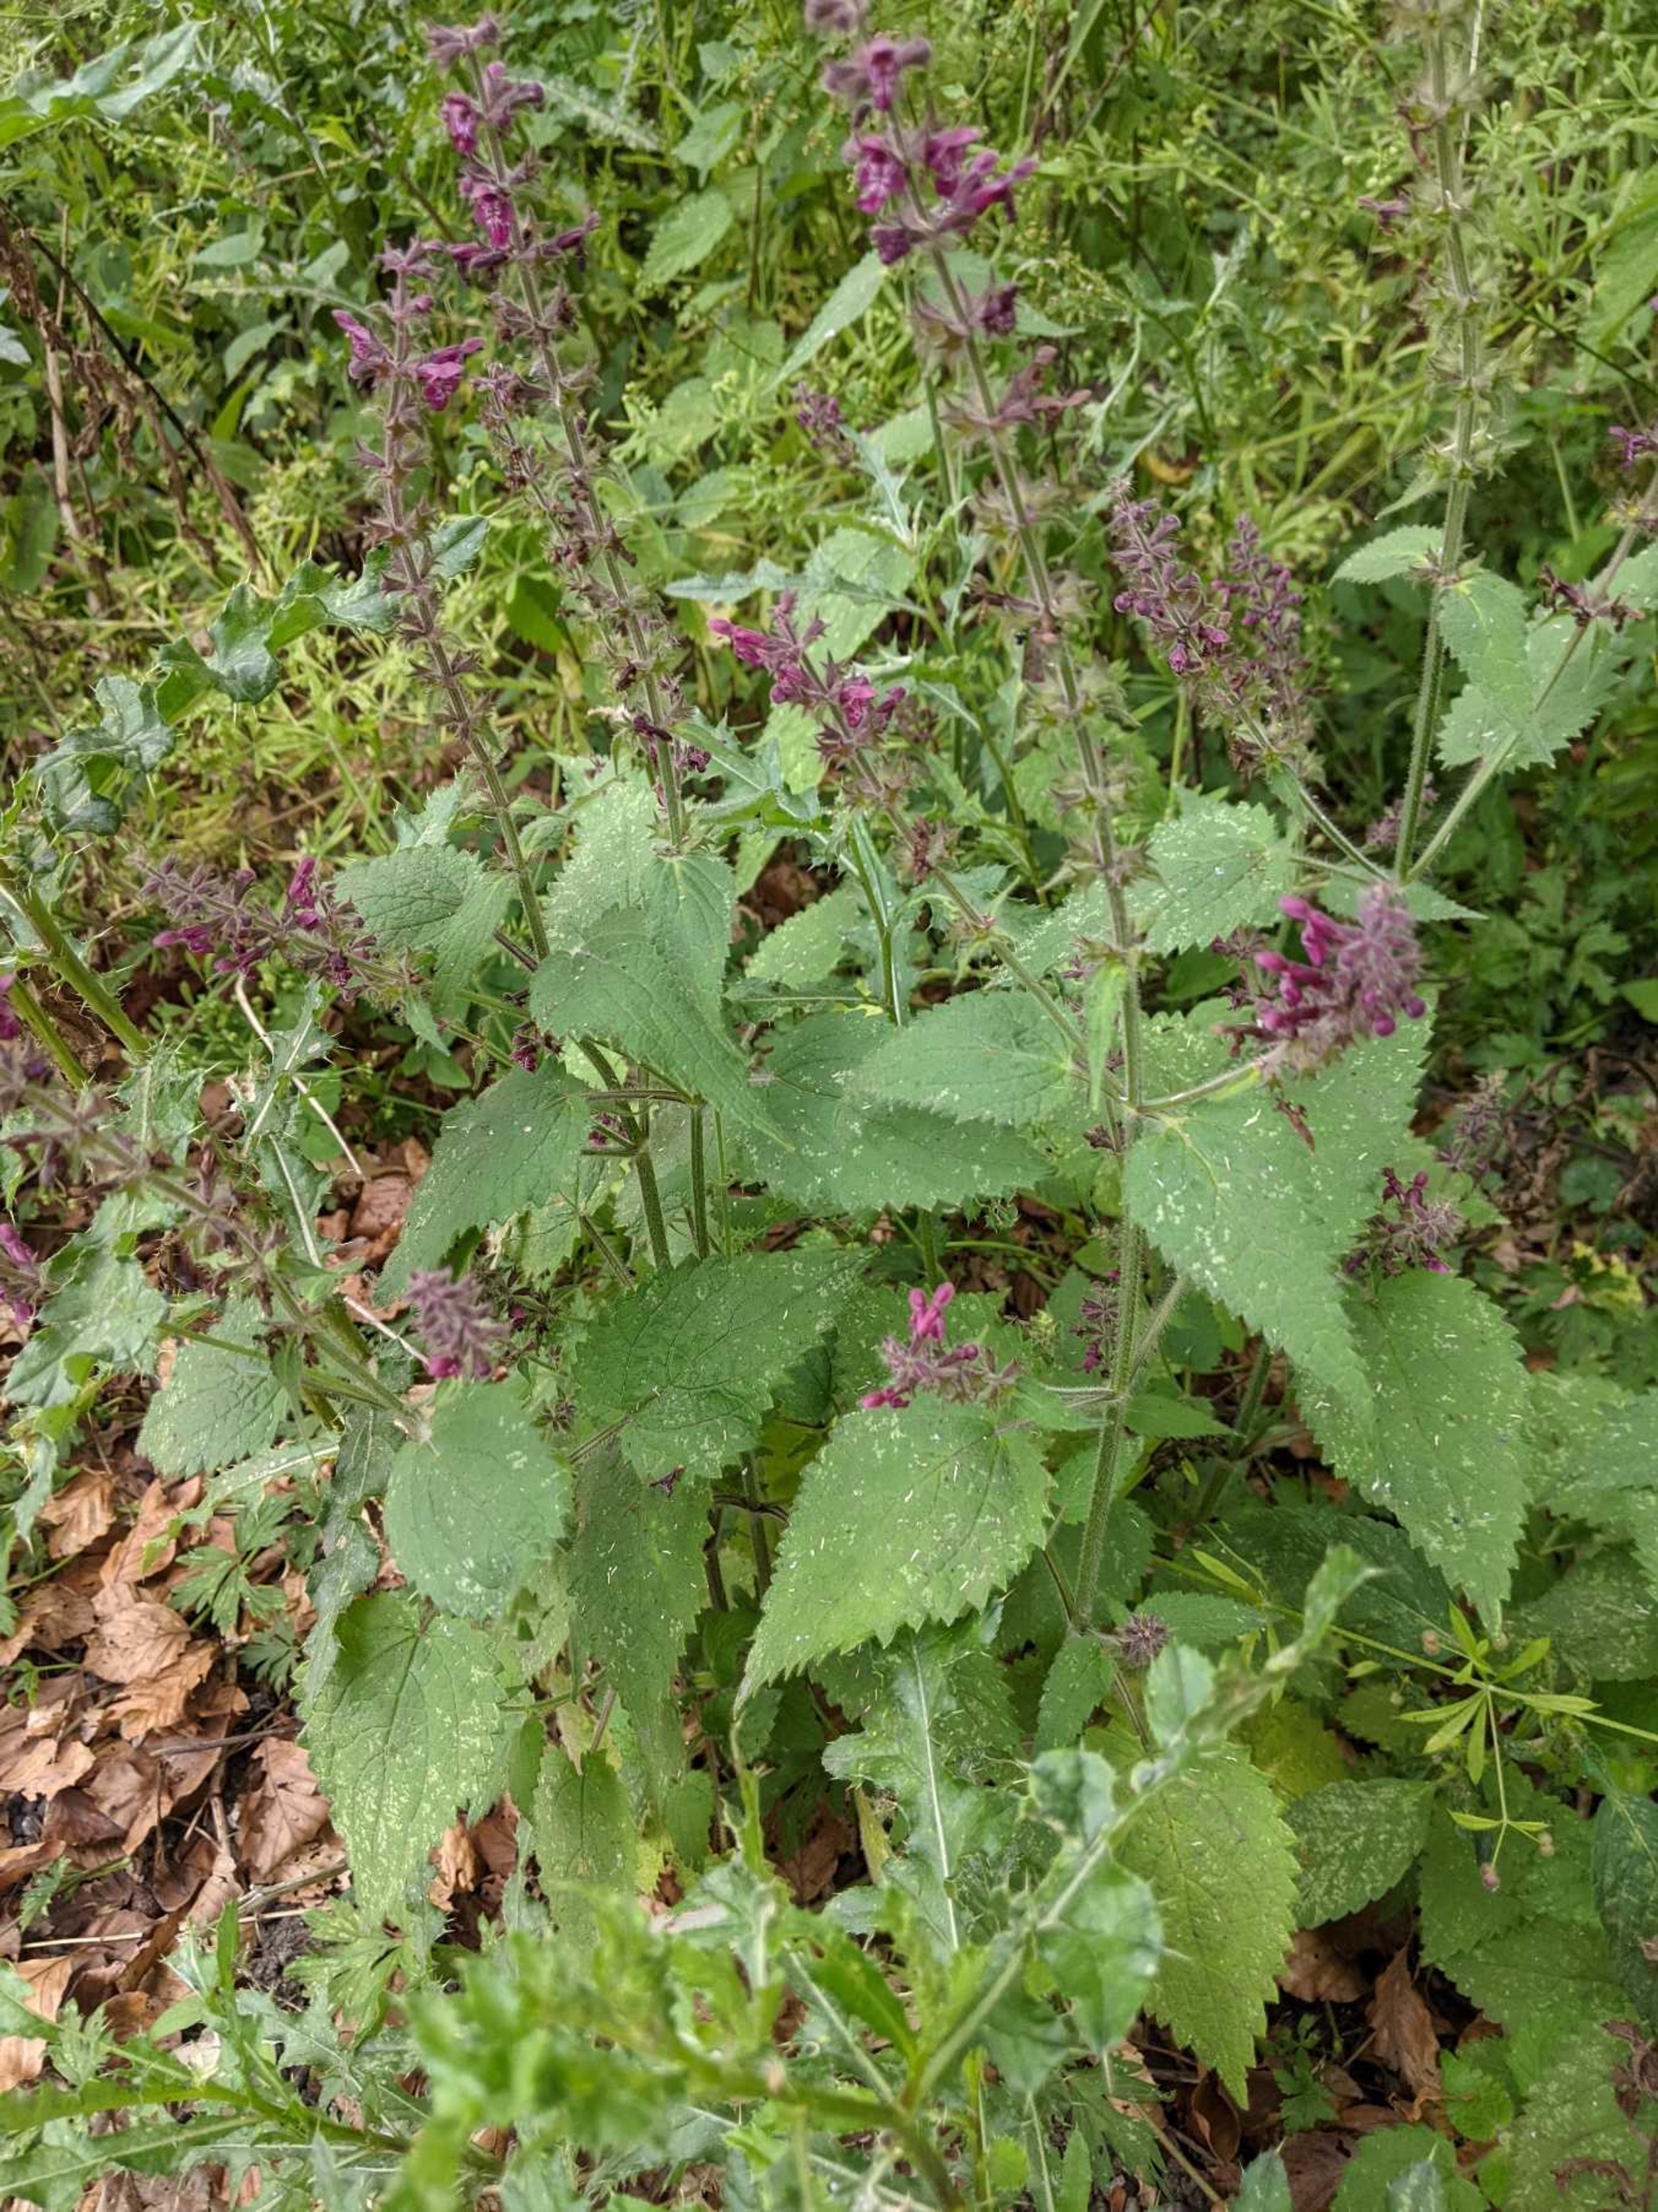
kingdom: Plantae
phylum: Tracheophyta
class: Magnoliopsida
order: Lamiales
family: Lamiaceae
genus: Stachys
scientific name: Stachys sylvatica
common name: Skov-galtetand
